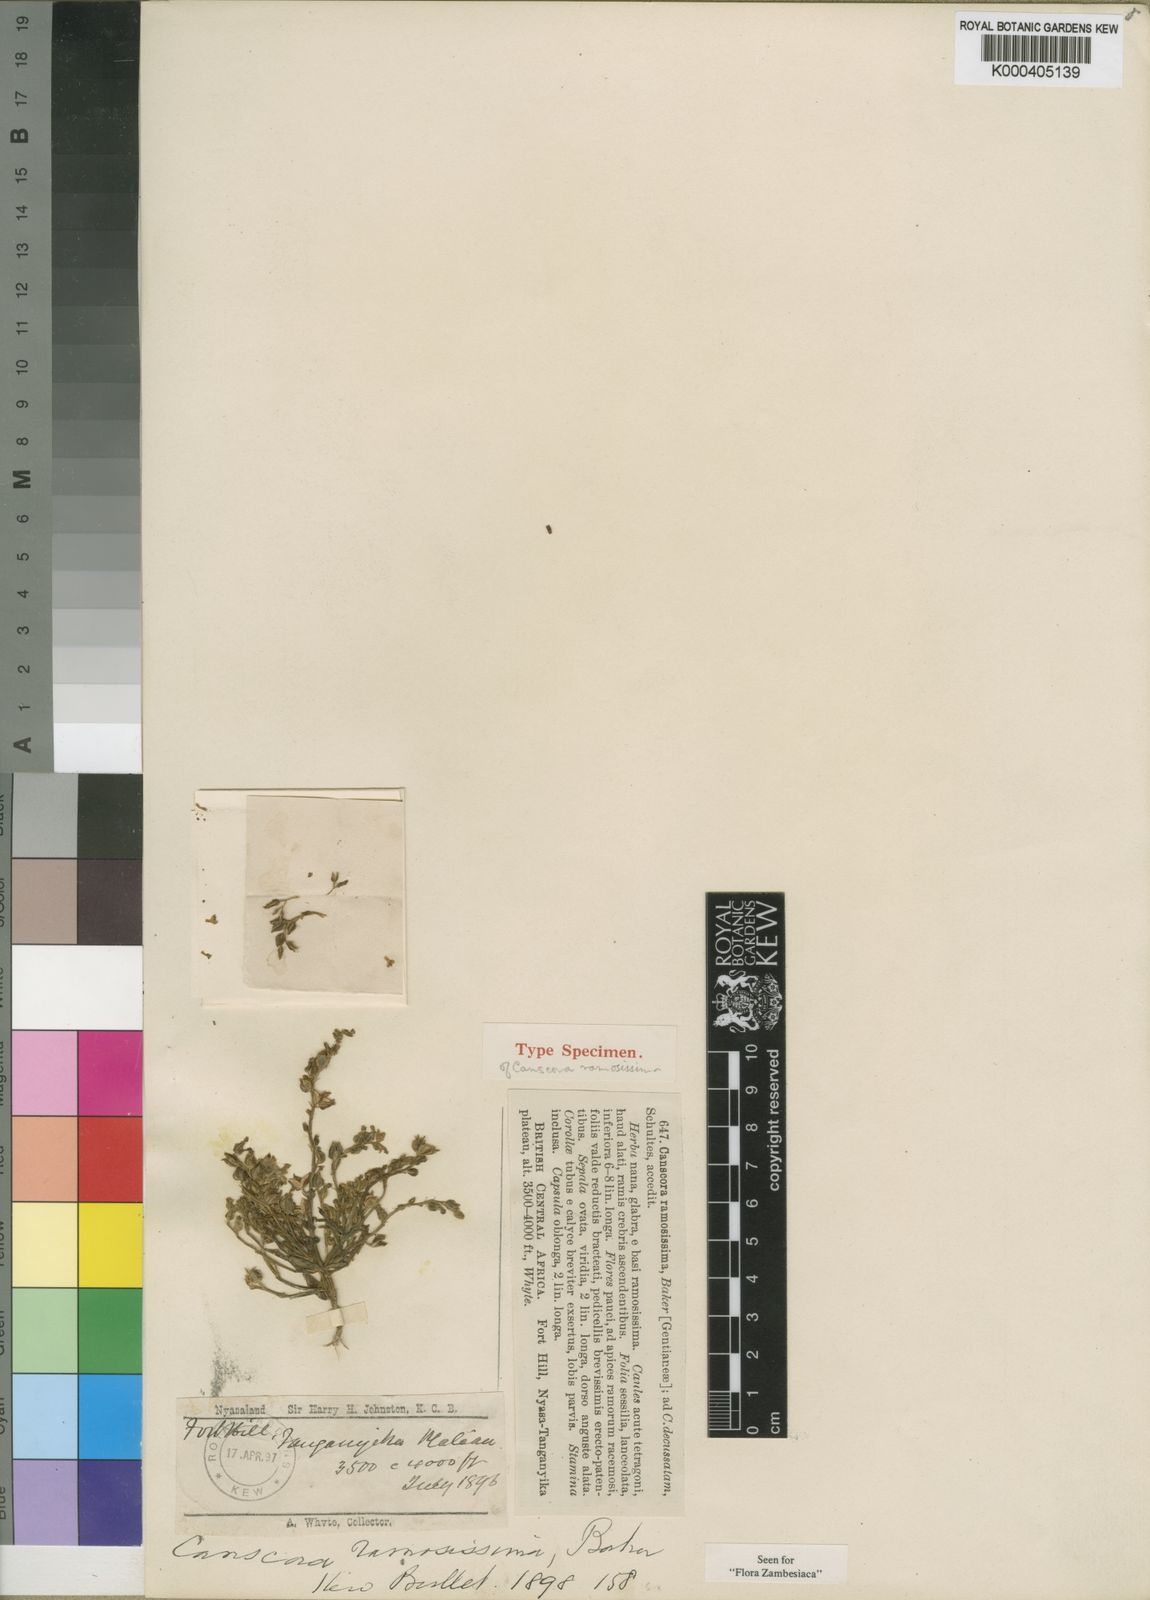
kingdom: Plantae
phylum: Tracheophyta
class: Magnoliopsida
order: Lamiales
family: Linderniaceae
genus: Crepidorhopalon
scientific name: Crepidorhopalon spicatus
